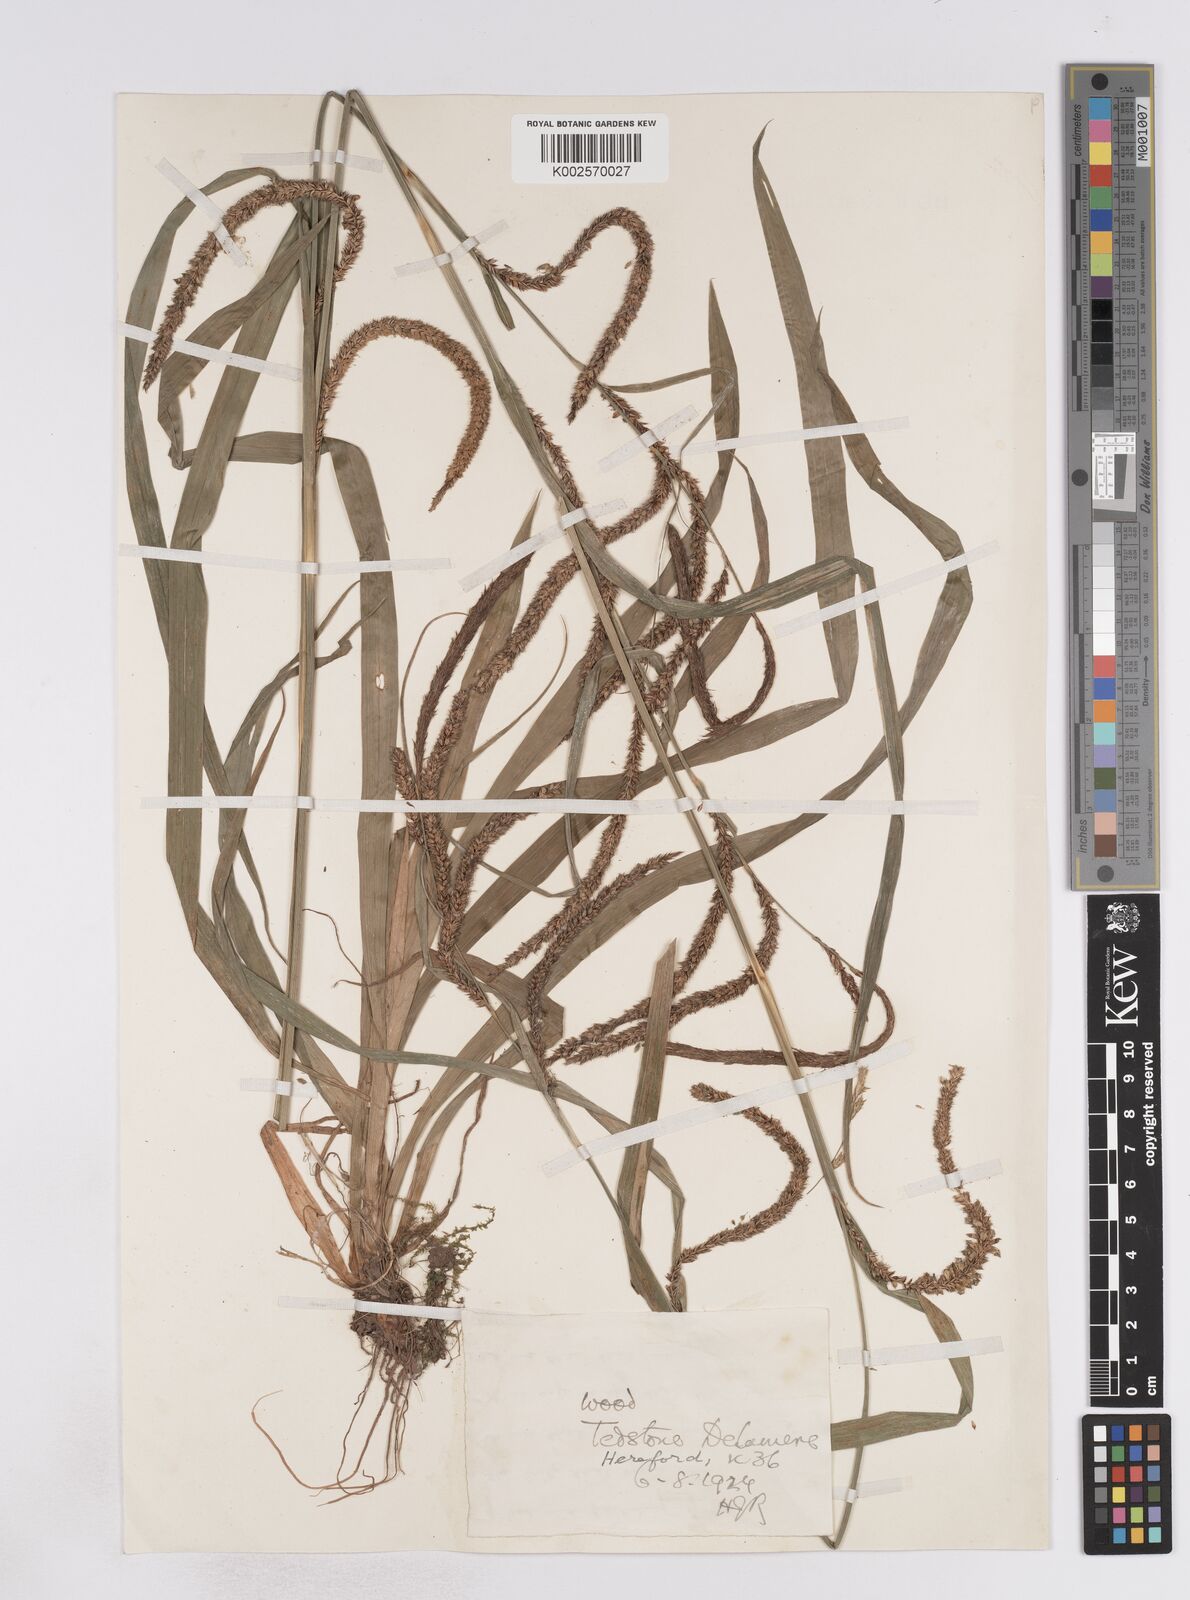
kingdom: Plantae
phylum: Tracheophyta
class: Liliopsida
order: Poales
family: Cyperaceae
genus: Carex
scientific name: Carex pendula
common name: Pendulous sedge
